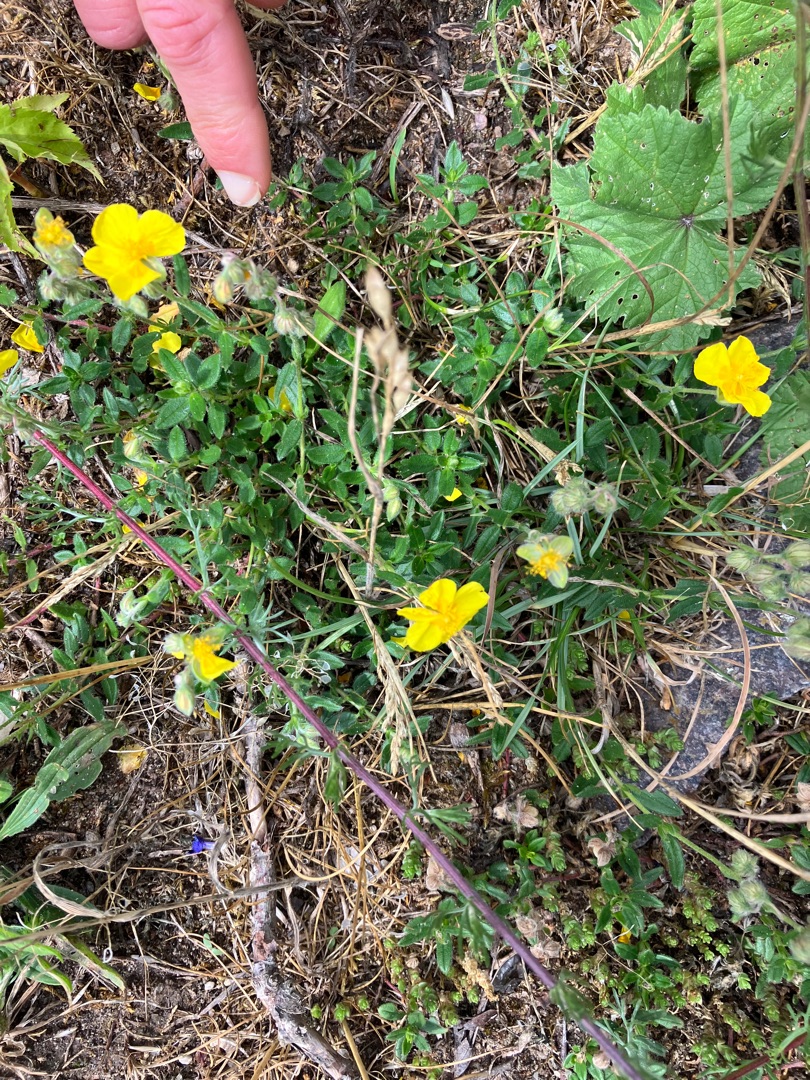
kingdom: Plantae
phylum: Tracheophyta
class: Magnoliopsida
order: Malvales
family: Cistaceae
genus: Helianthemum
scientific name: Helianthemum nummularium
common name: Soløje
